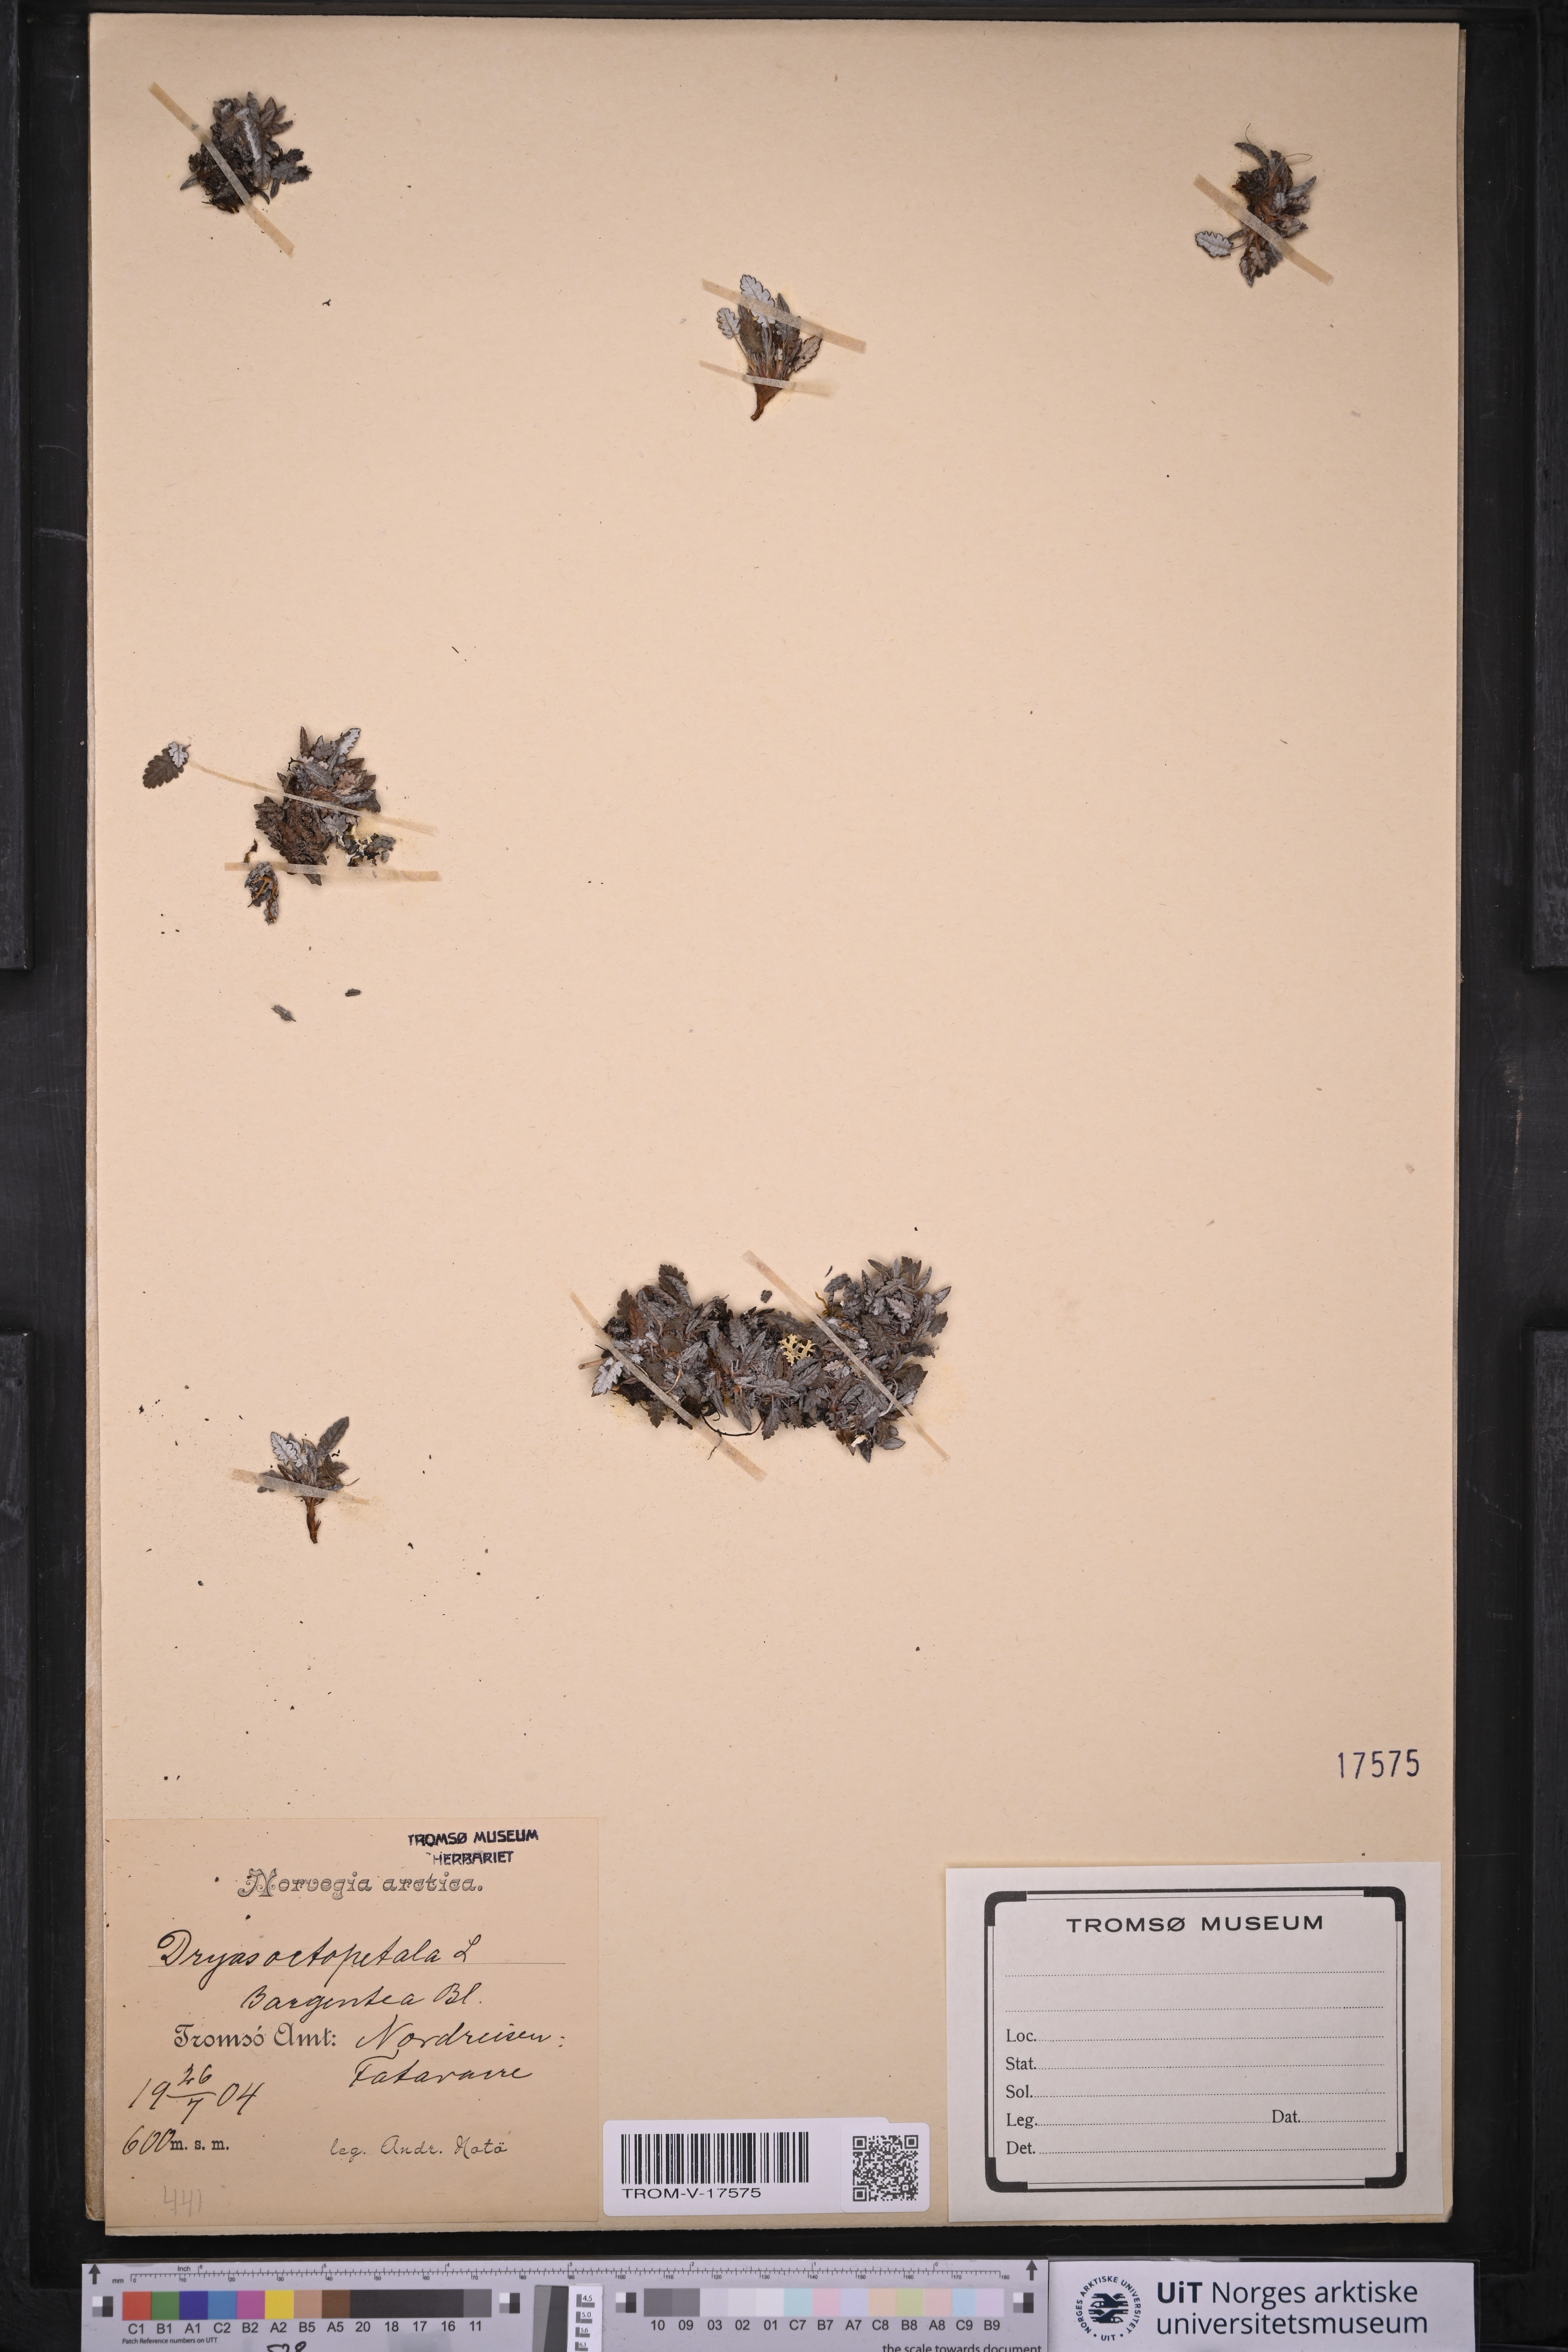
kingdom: Plantae
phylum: Tracheophyta
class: Magnoliopsida
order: Rosales
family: Rosaceae
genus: Dryas
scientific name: Dryas octopetala
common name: Eight-petal mountain-avens
